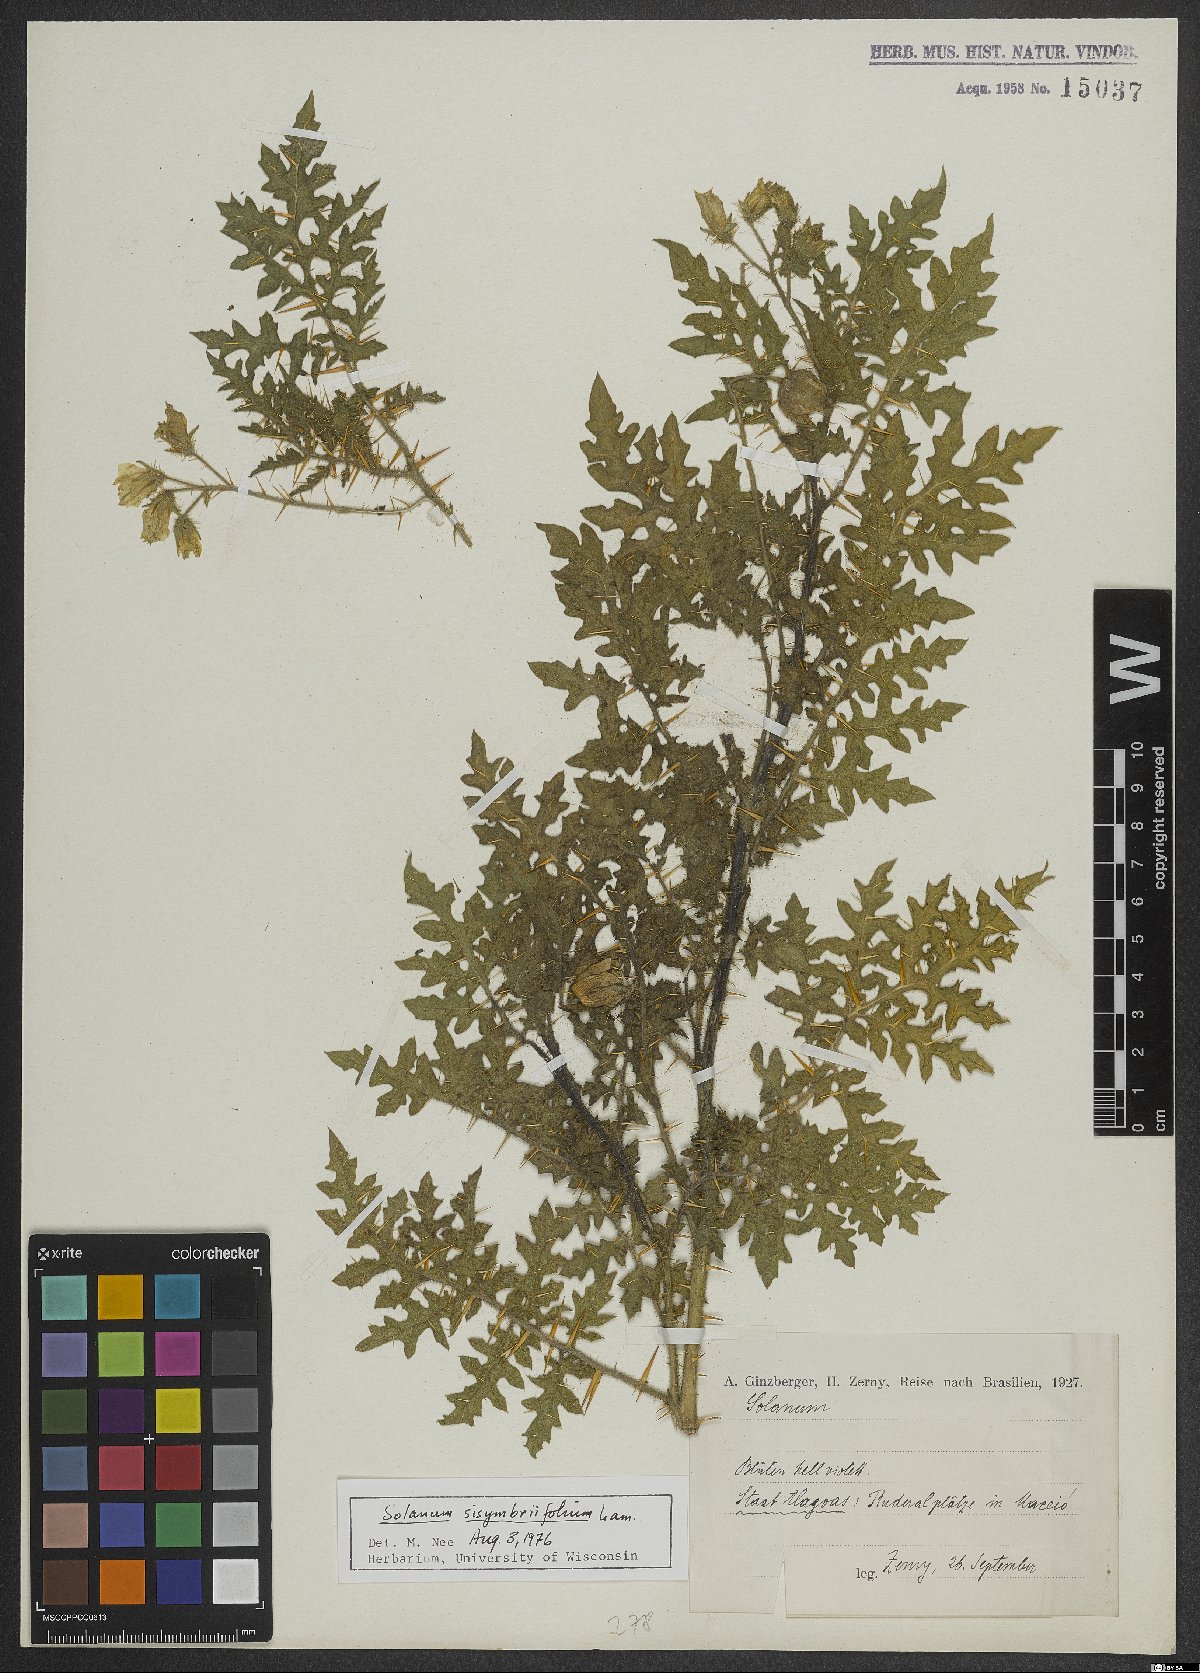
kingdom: Plantae
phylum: Tracheophyta
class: Magnoliopsida
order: Solanales
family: Solanaceae
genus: Solanum
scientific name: Solanum sisymbriifolium
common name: Red buffalo-bur
